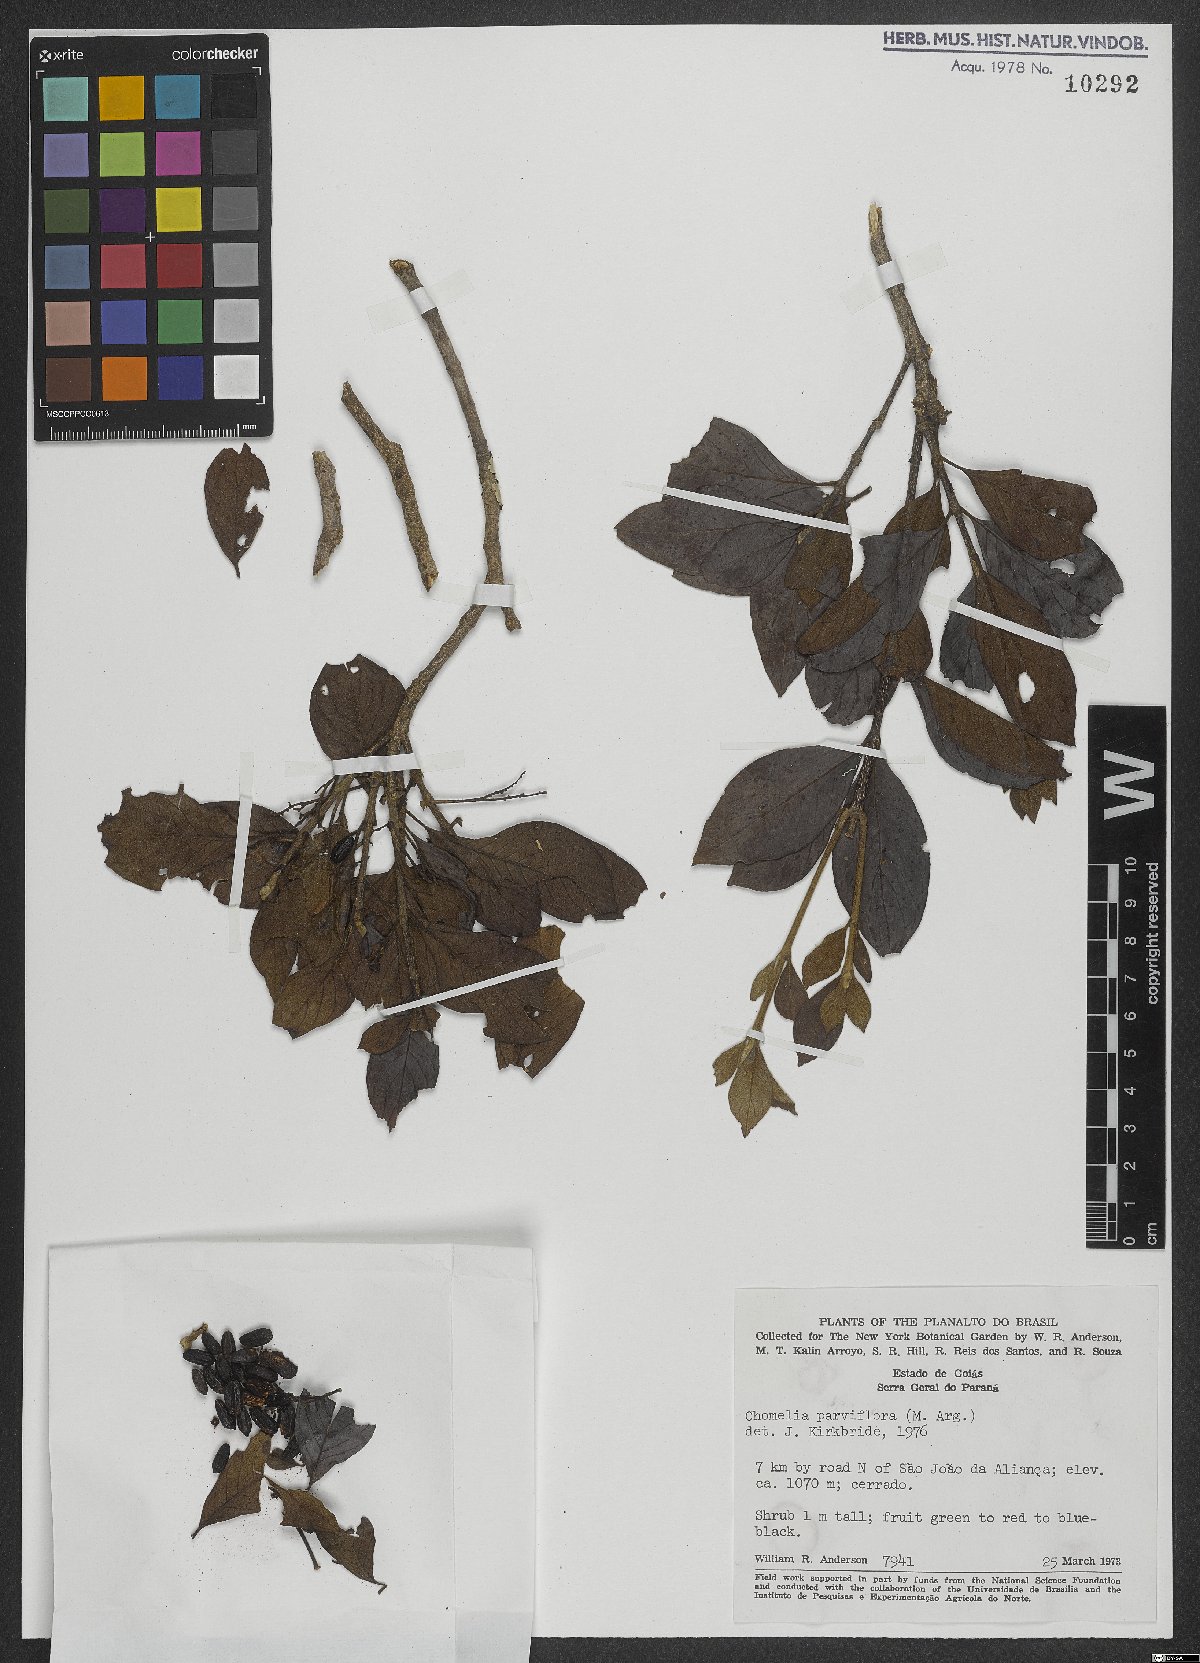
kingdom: Plantae
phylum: Tracheophyta
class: Magnoliopsida
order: Gentianales
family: Rubiaceae
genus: Chomelia
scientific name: Chomelia parviflora
